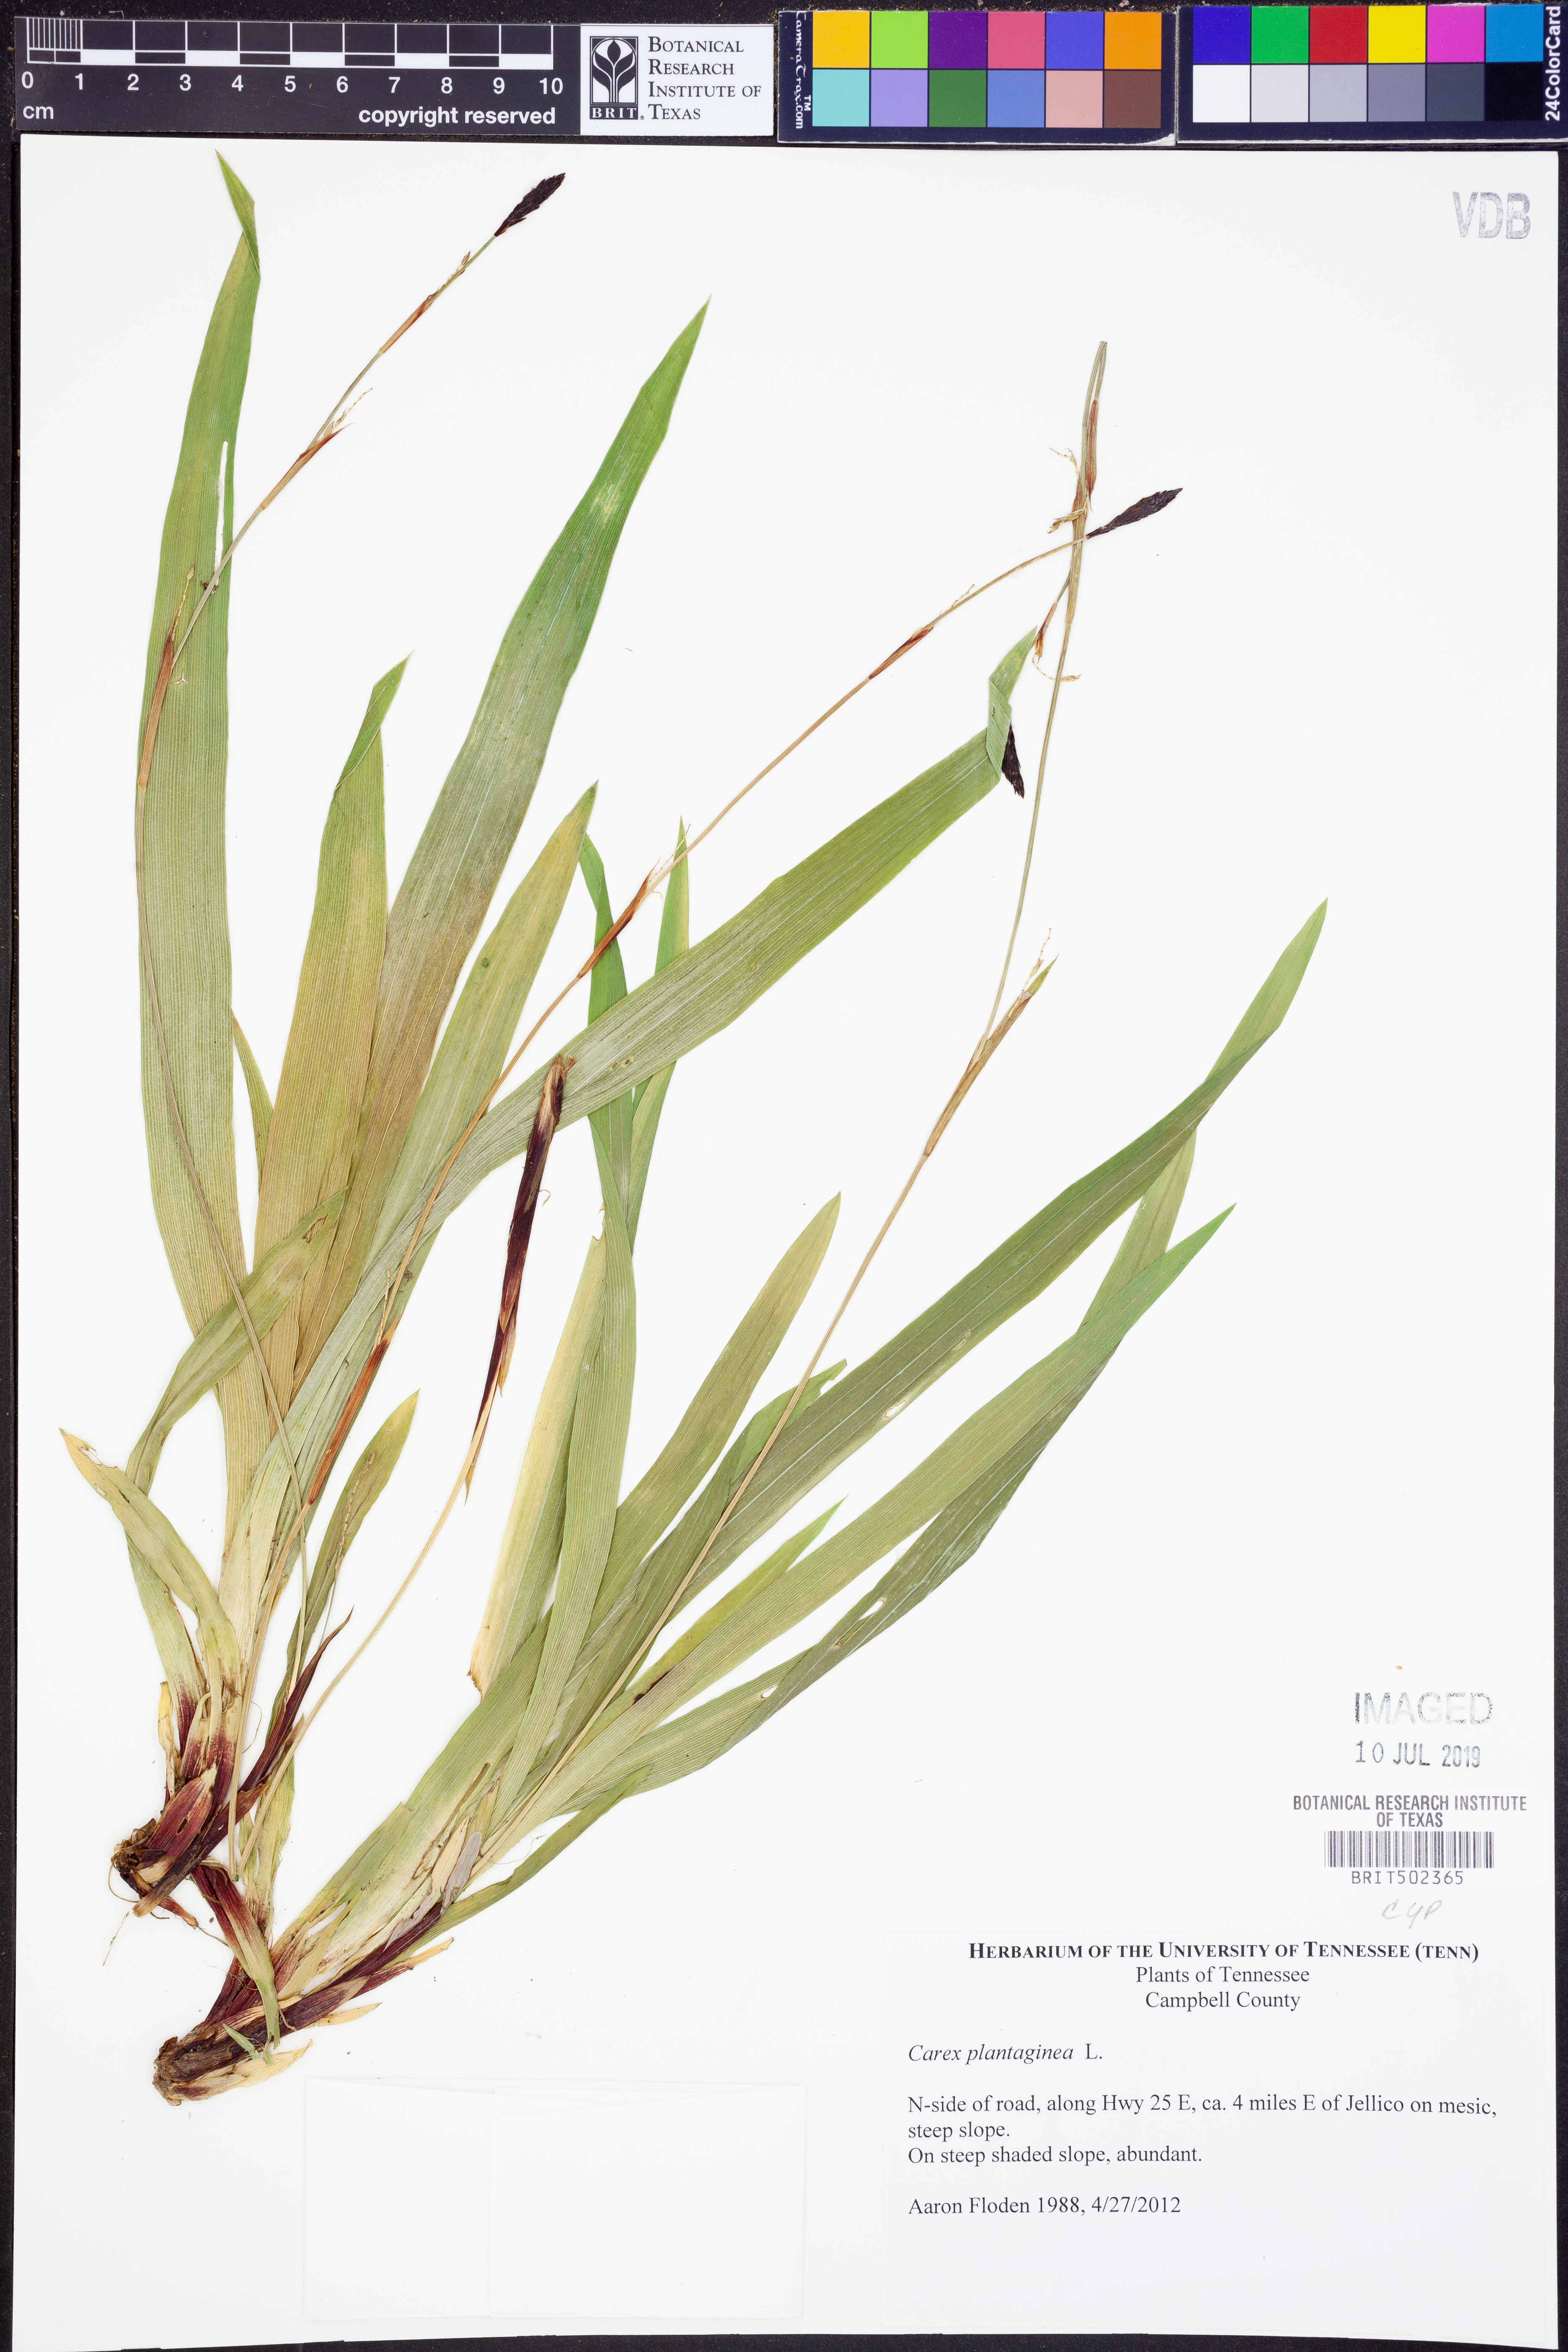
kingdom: Plantae
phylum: Tracheophyta
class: Liliopsida
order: Poales
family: Cyperaceae
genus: Carex
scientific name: Carex plantaginea
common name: Plantain-leaved sedge
